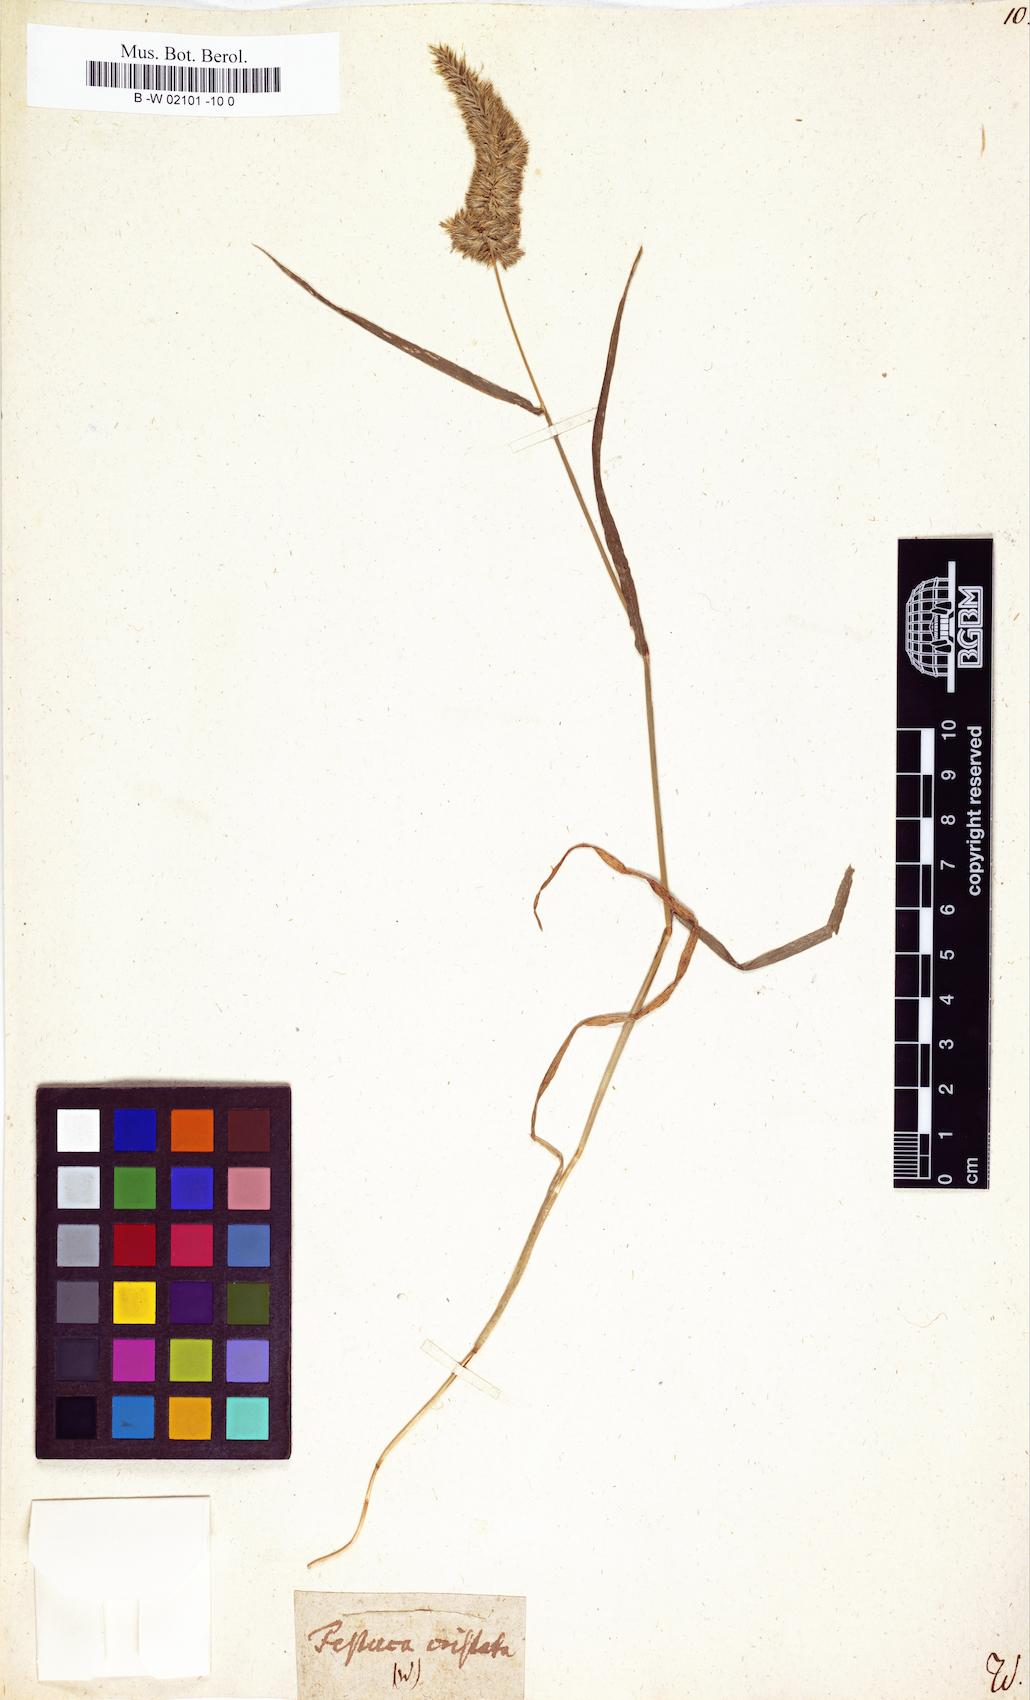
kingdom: Plantae
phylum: Tracheophyta
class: Liliopsida
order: Poales
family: Poaceae
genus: Rostraria
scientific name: Rostraria cristata
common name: Mediterranean hair-grass
